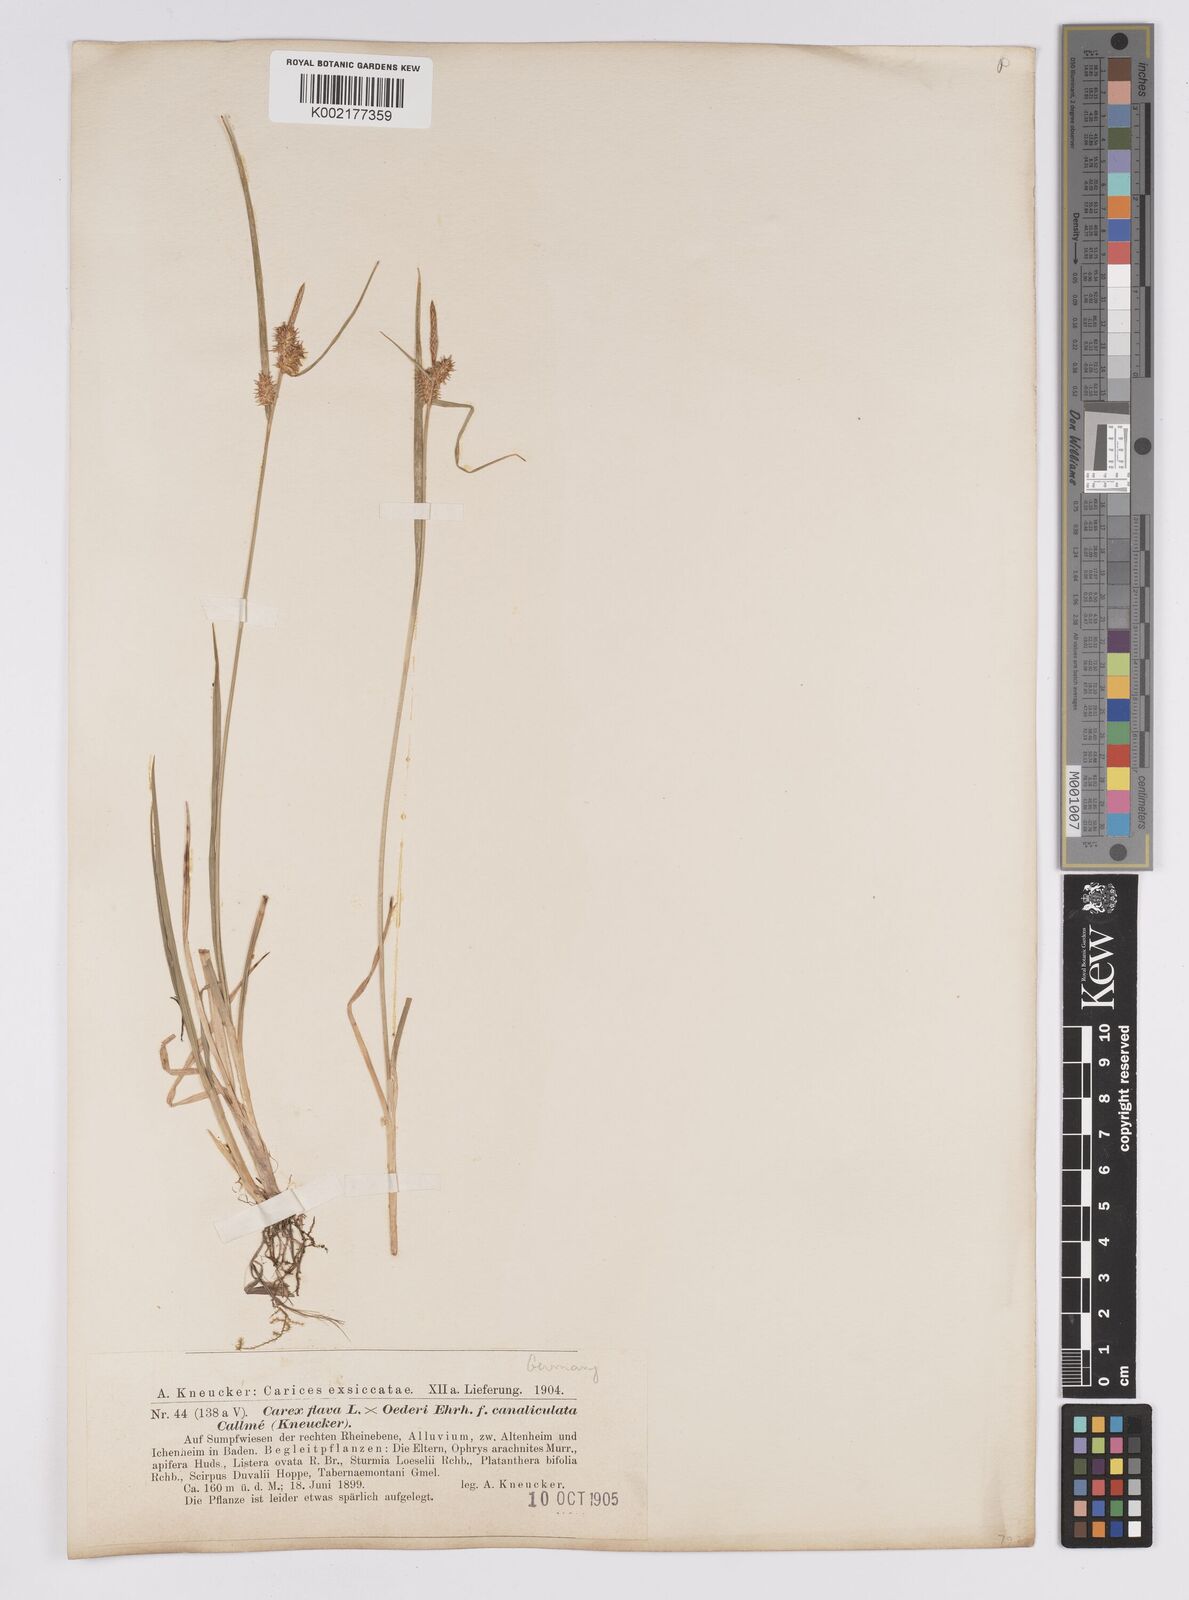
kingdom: Plantae
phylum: Tracheophyta
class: Liliopsida
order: Poales
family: Cyperaceae
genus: Carex
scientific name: Carex hostiana
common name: Tawny sedge
